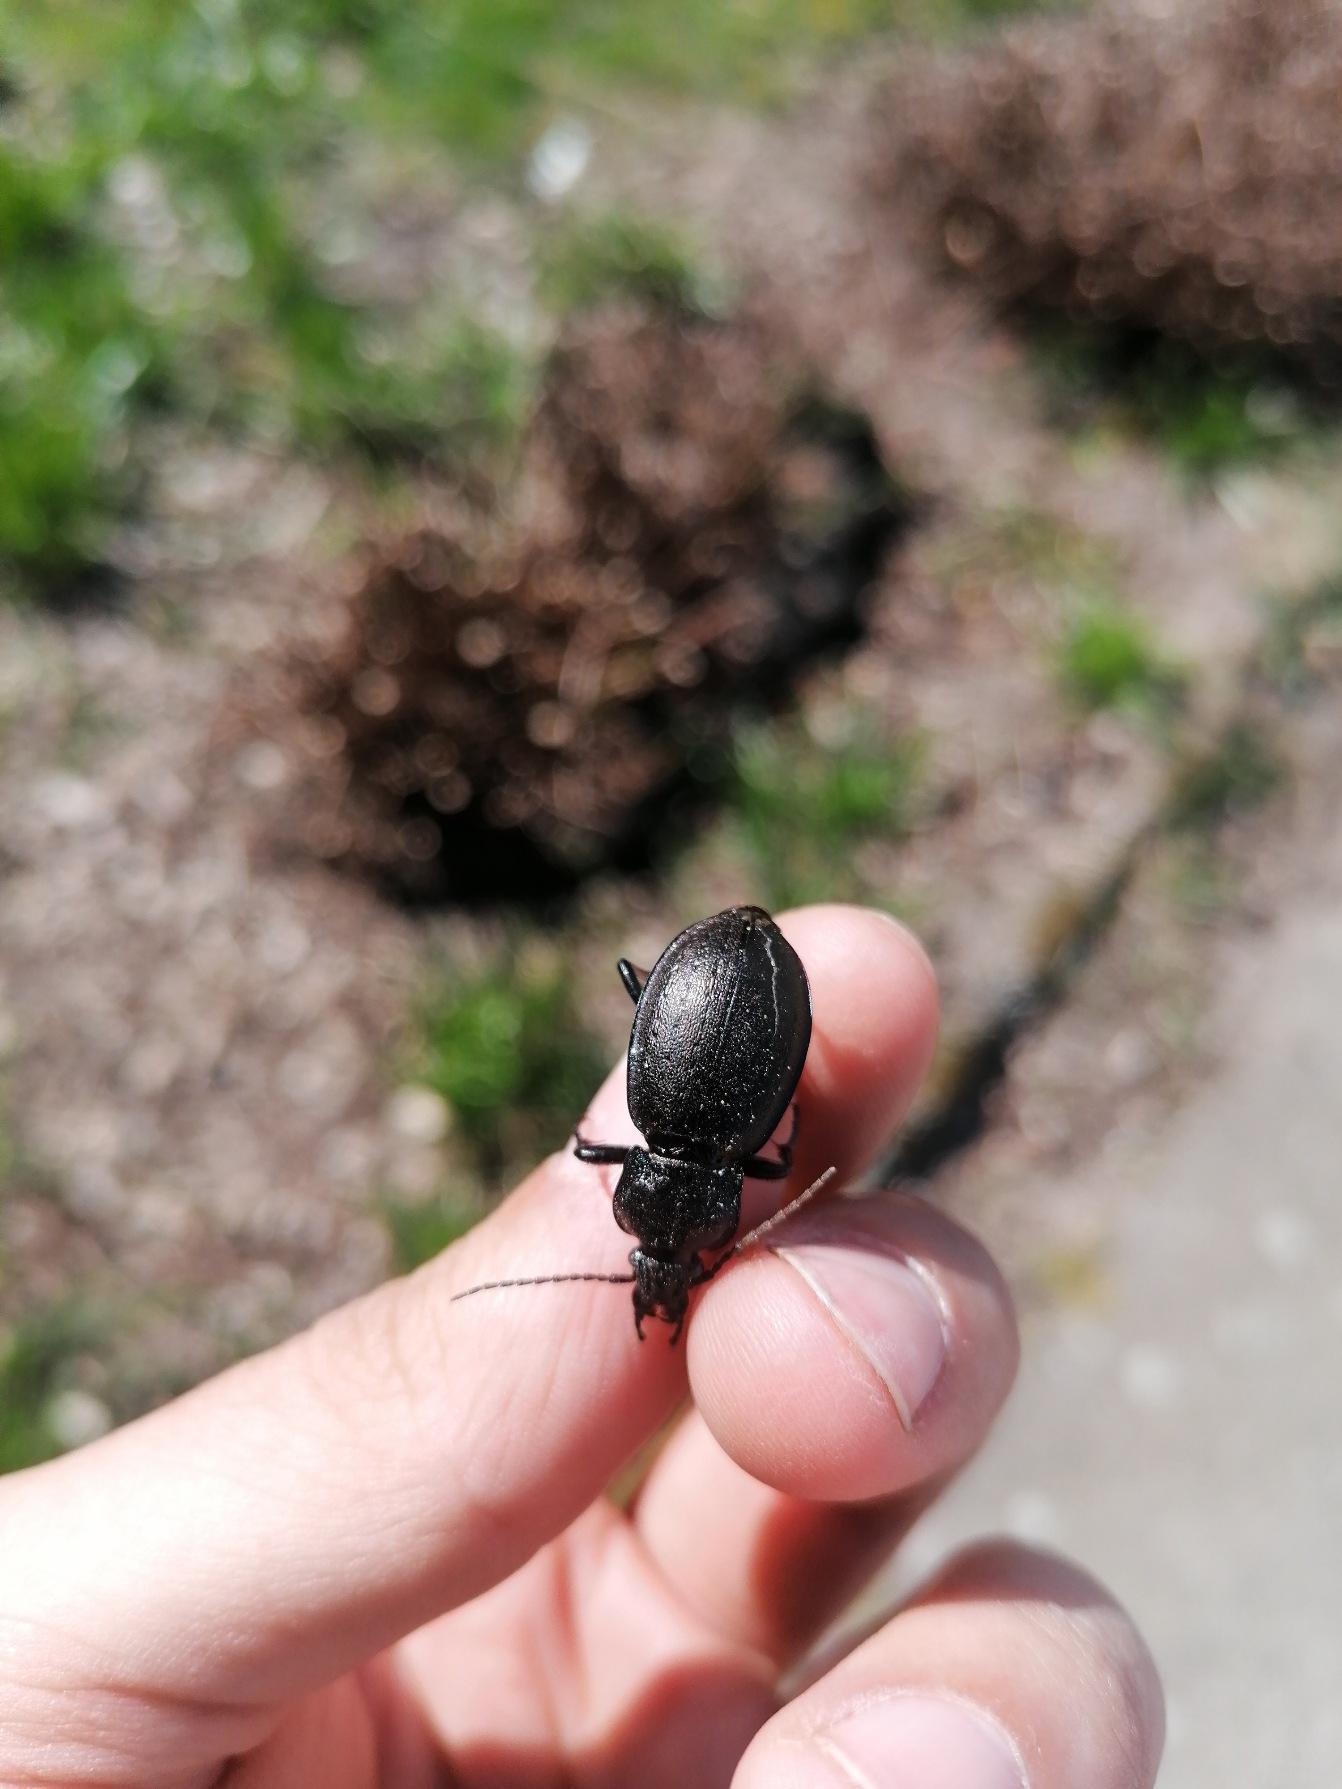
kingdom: Animalia
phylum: Arthropoda
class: Insecta
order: Coleoptera
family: Carabidae
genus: Carabus
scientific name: Carabus problematicus
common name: Jysk løber
